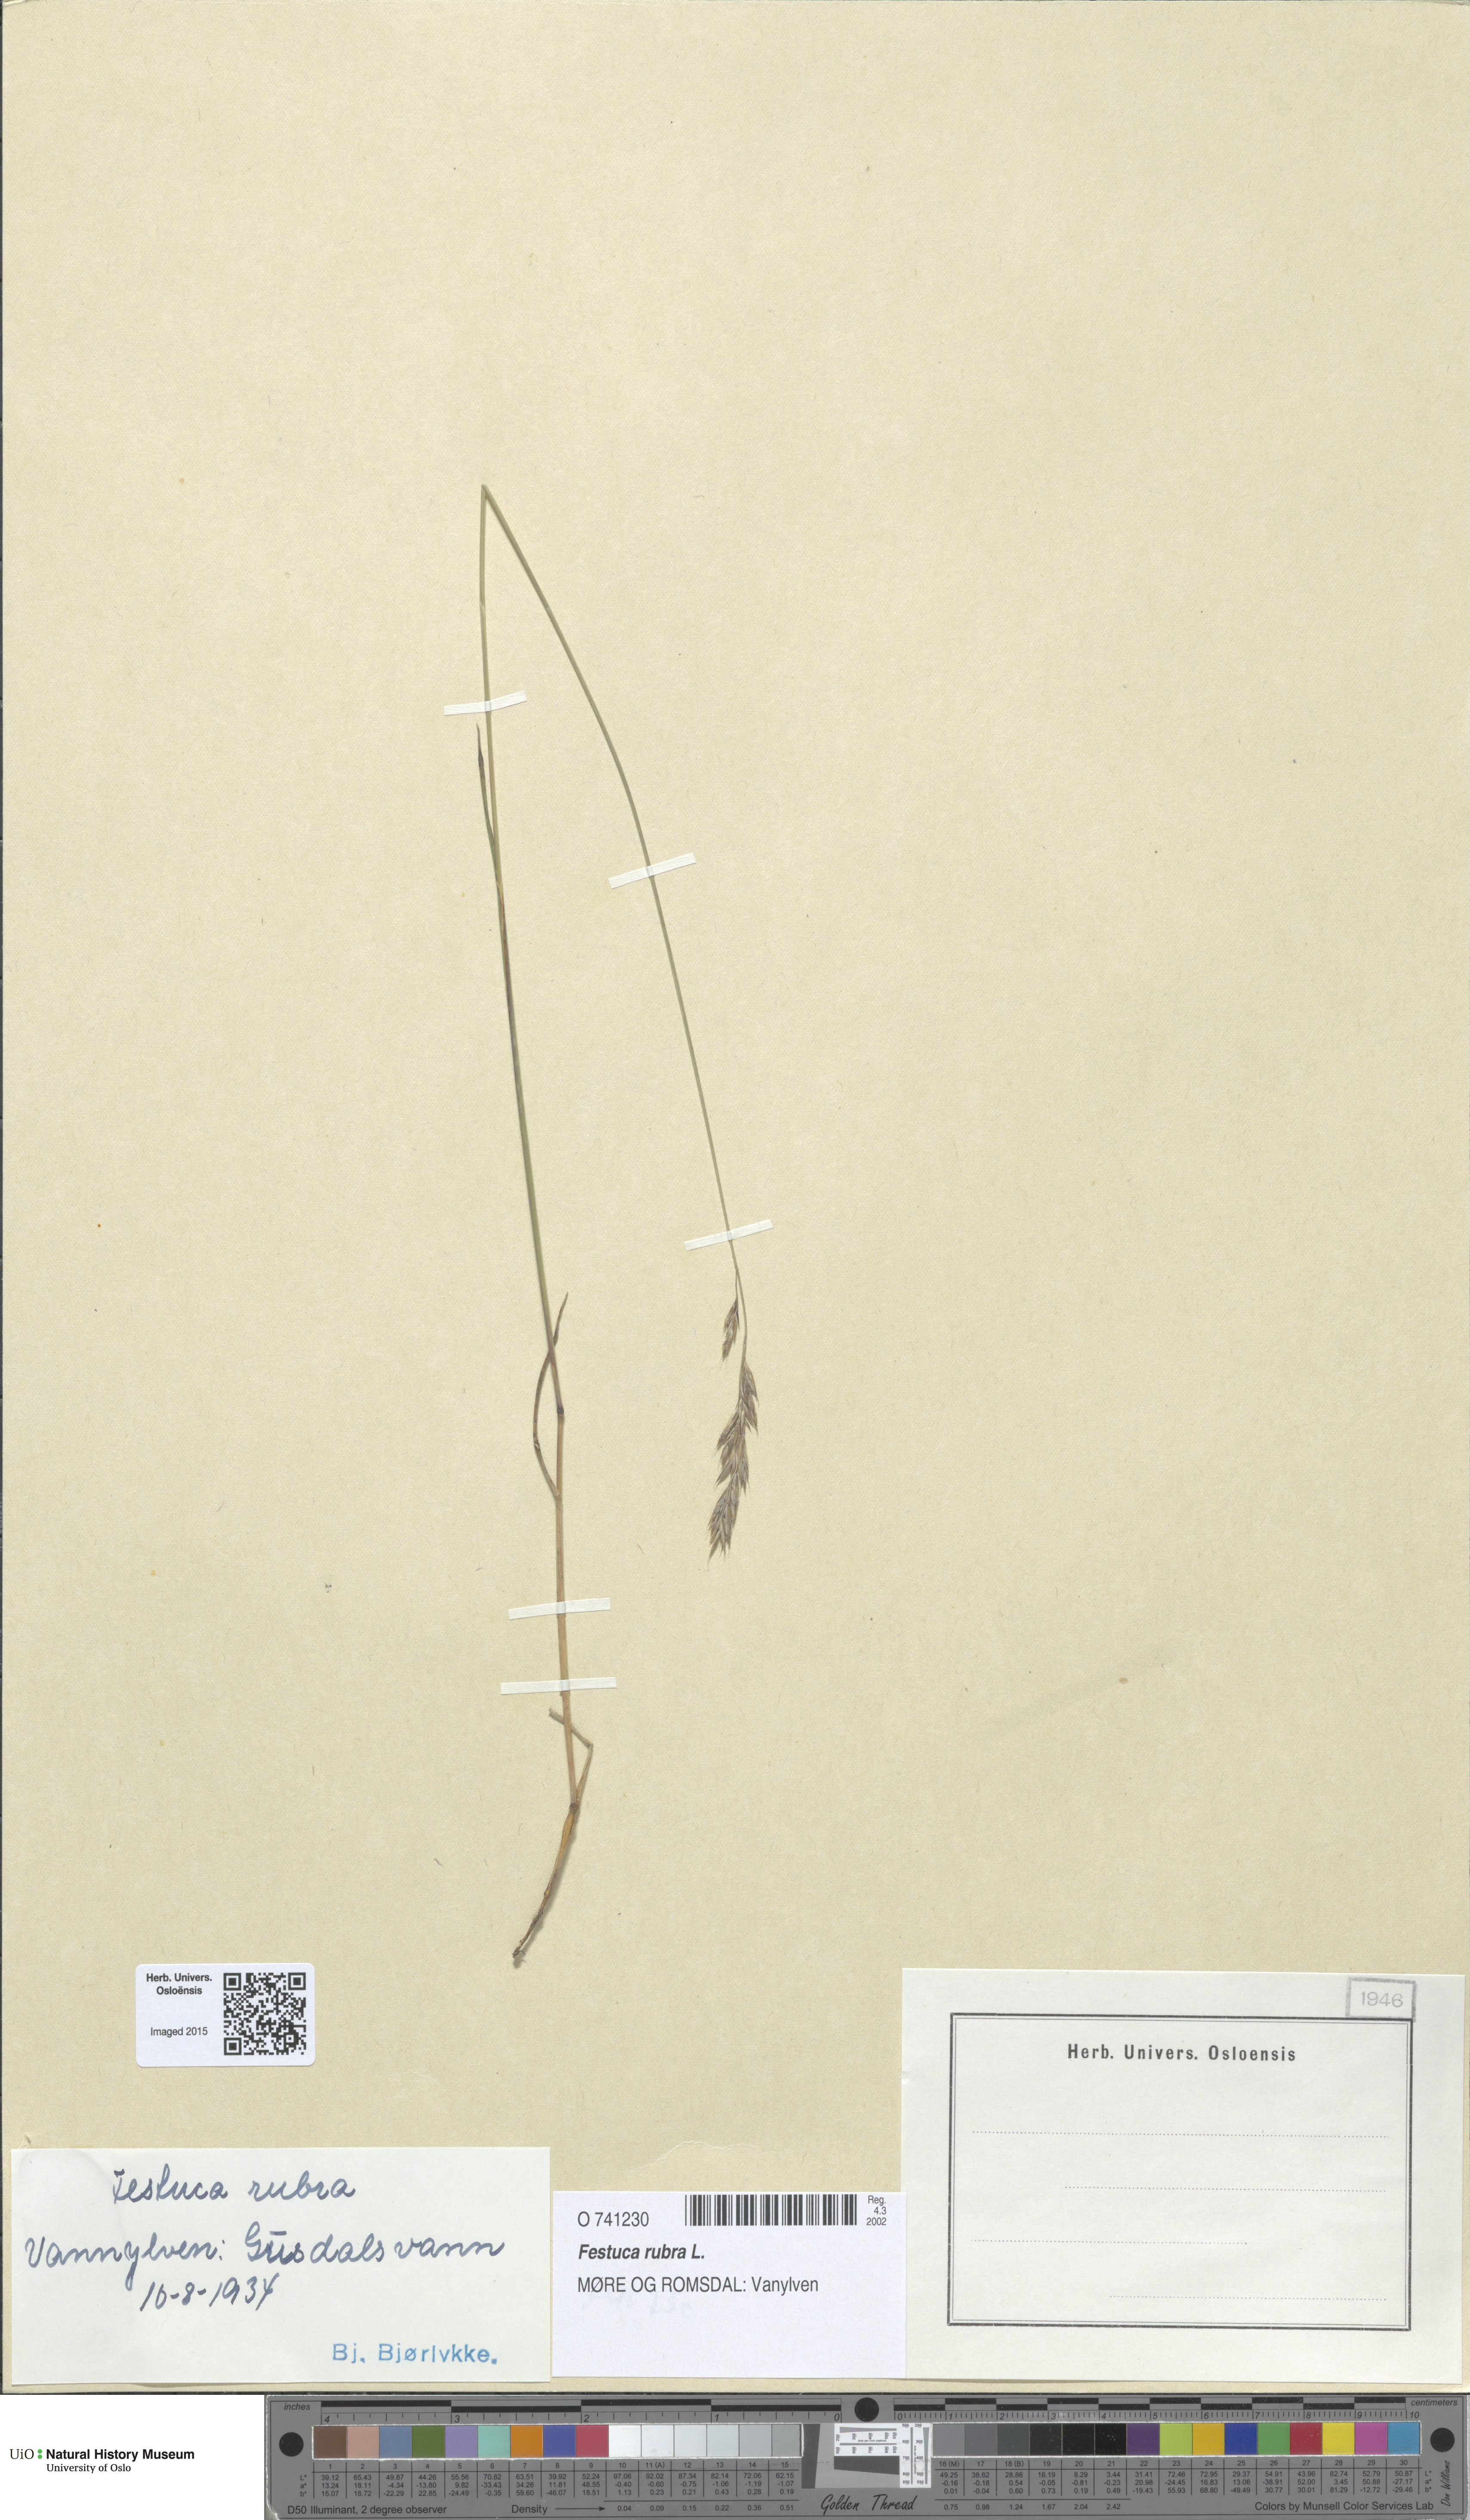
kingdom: Plantae
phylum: Tracheophyta
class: Liliopsida
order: Poales
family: Poaceae
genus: Festuca
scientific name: Festuca rubra
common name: Red fescue
